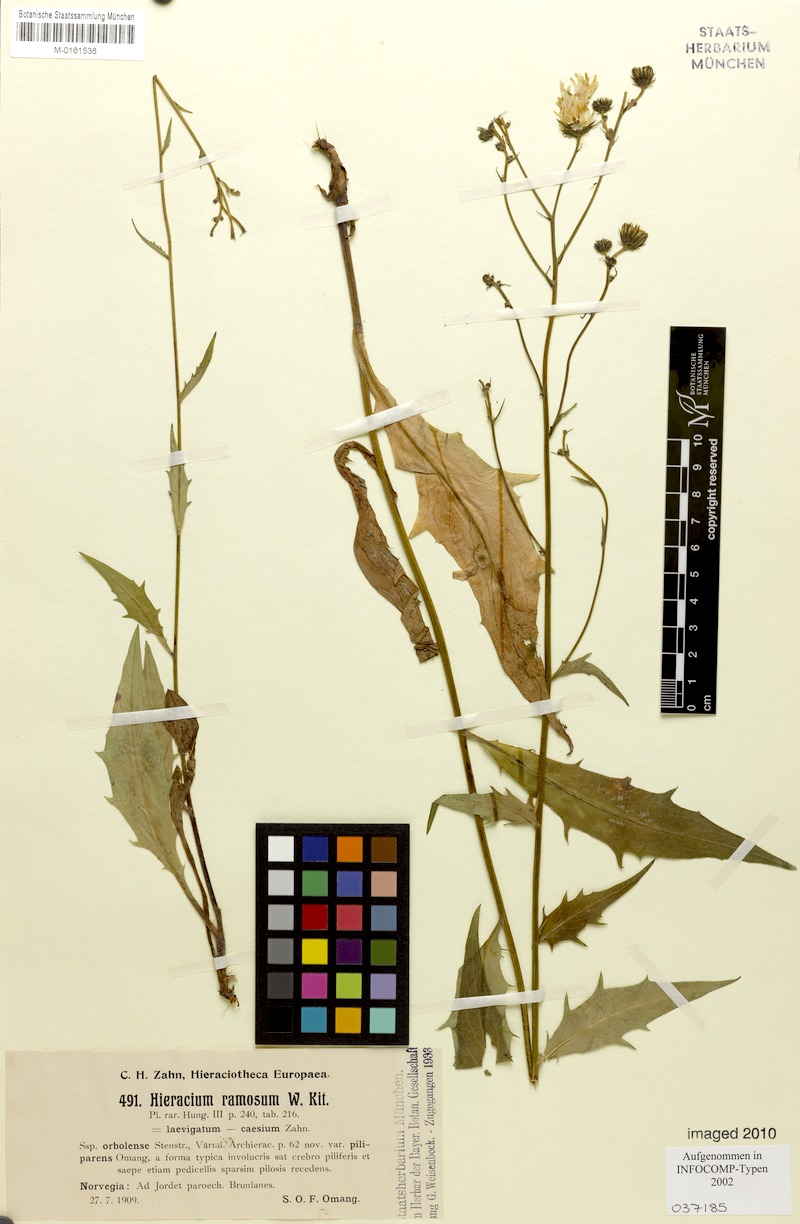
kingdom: Plantae
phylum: Tracheophyta
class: Magnoliopsida
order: Asterales
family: Asteraceae
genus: Hieracium
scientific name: Hieracium ramosum
